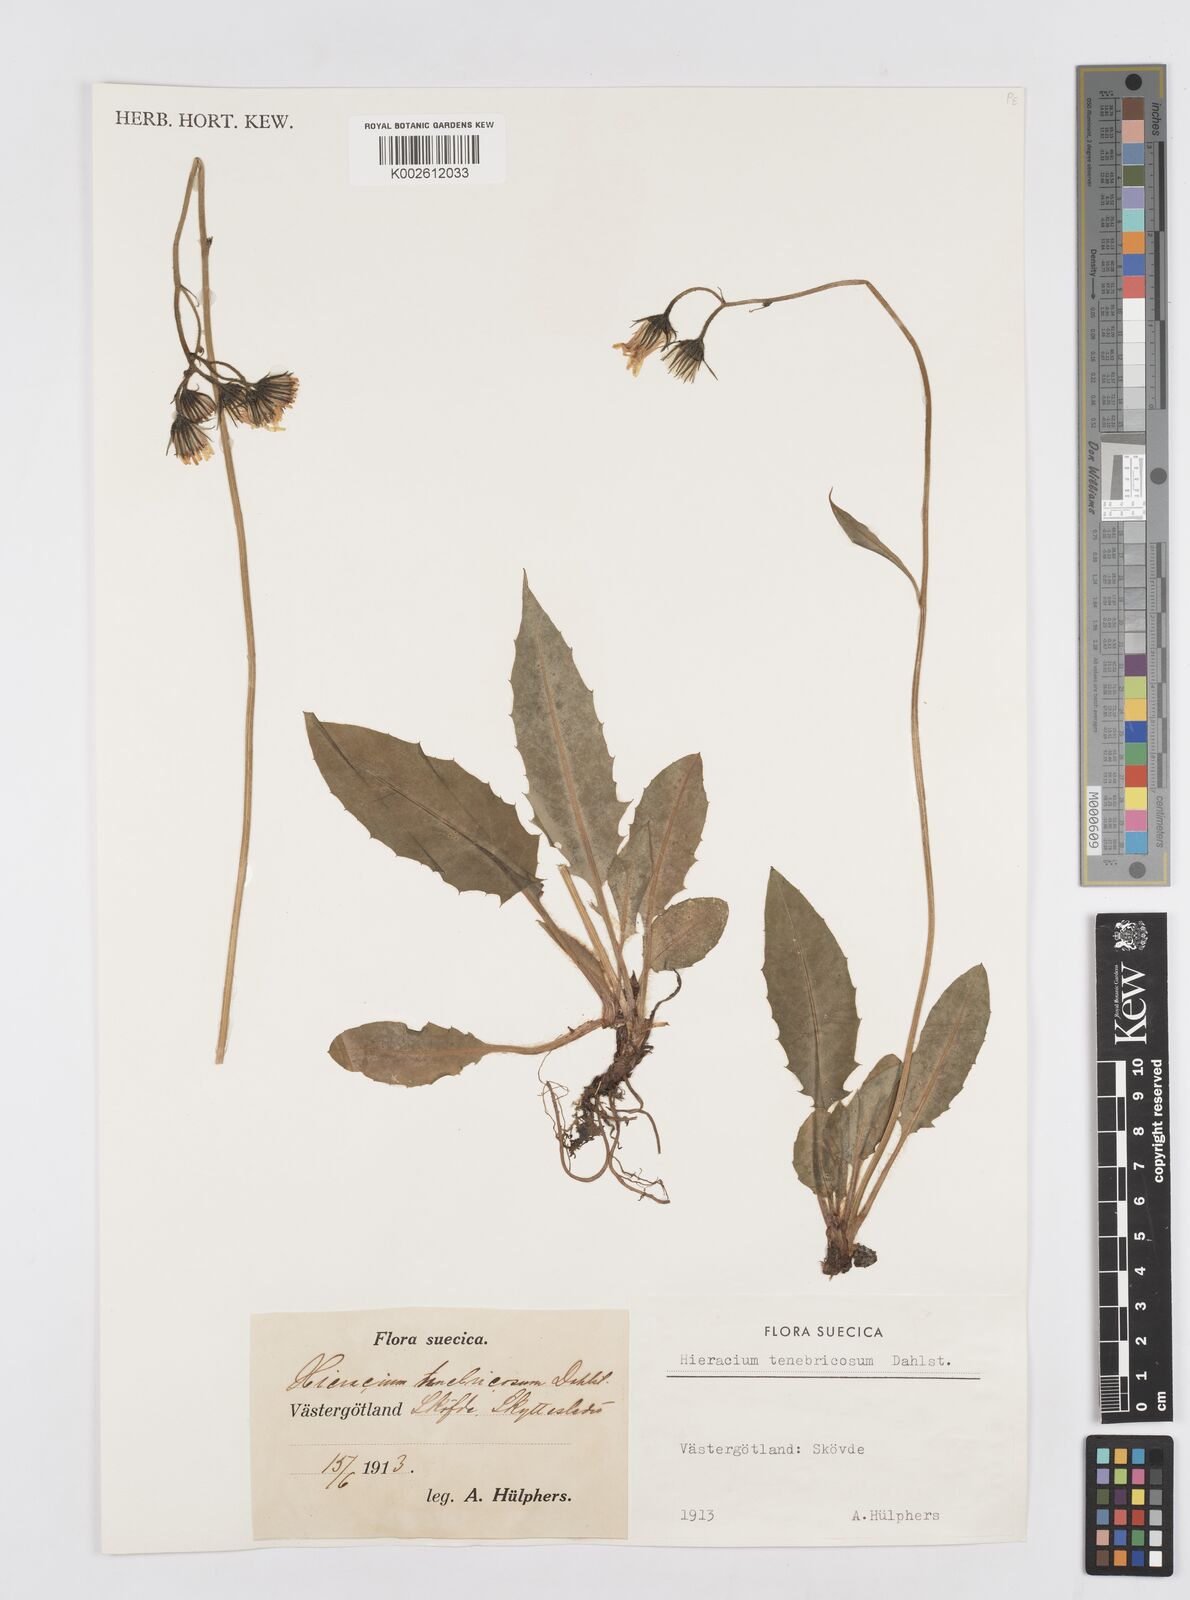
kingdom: Plantae
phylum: Tracheophyta
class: Magnoliopsida
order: Asterales
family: Asteraceae
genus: Hieracium
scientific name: Hieracium tenebricosum
